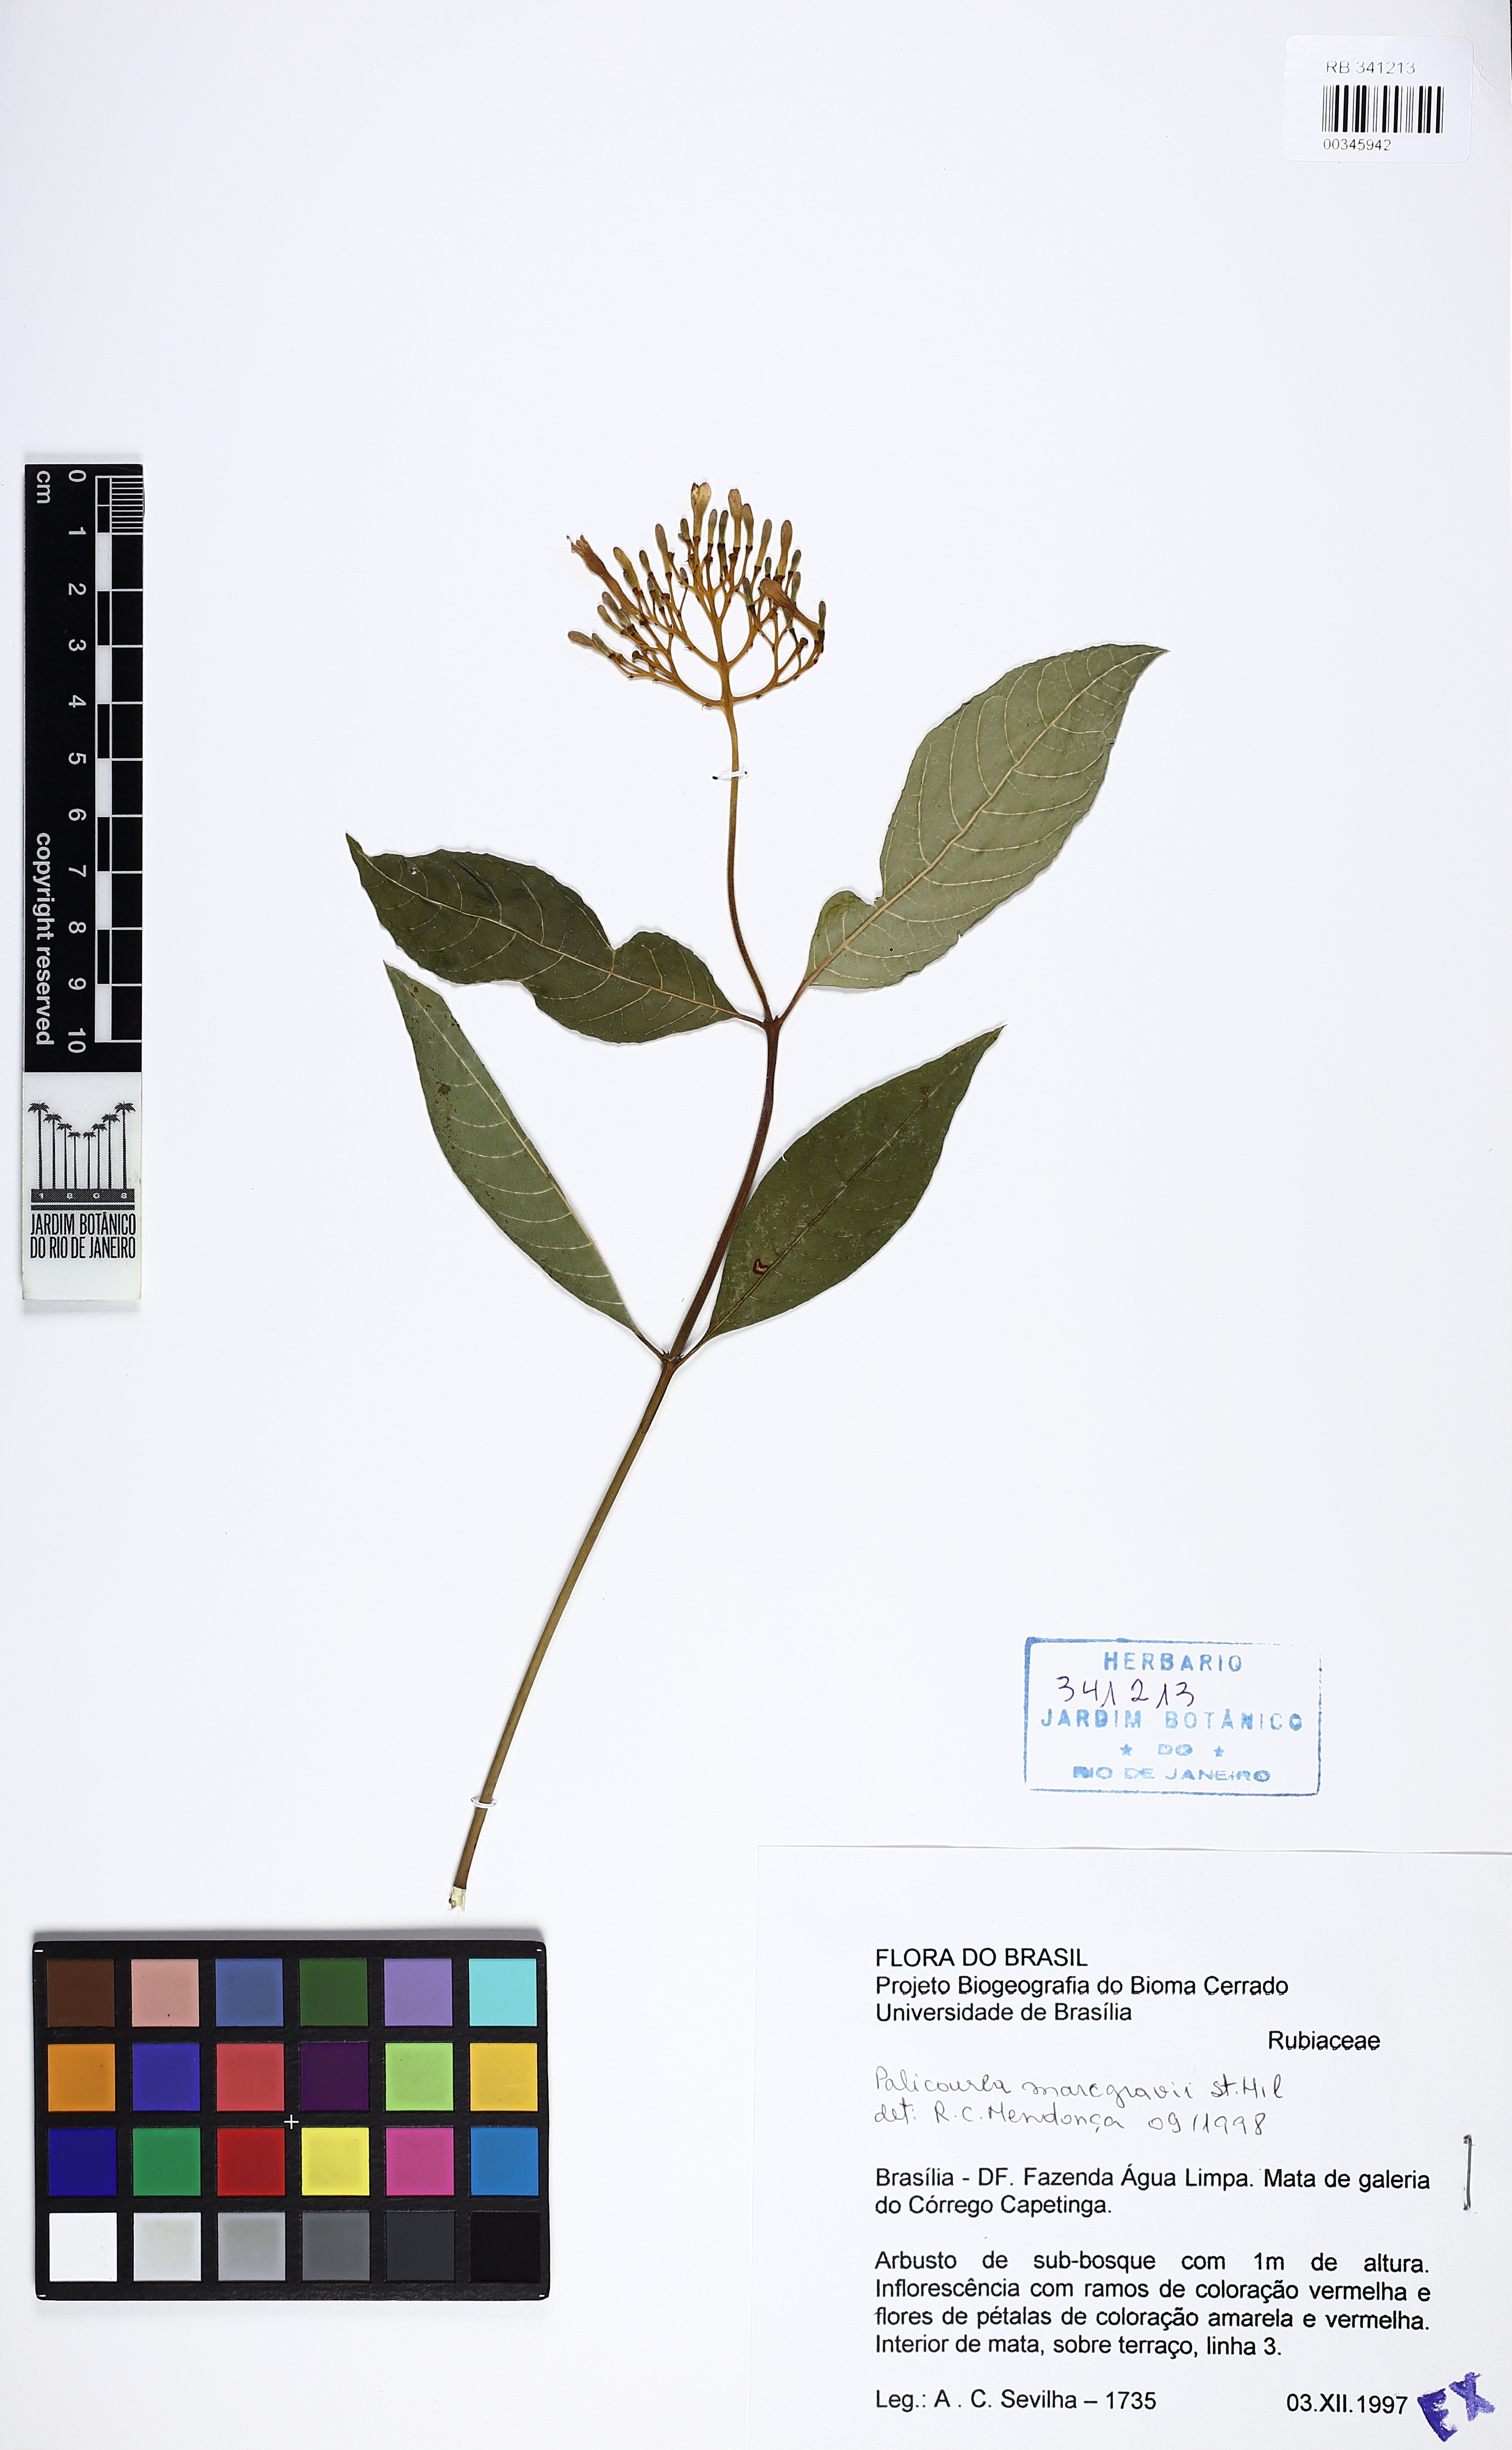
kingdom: Plantae
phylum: Tracheophyta
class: Magnoliopsida
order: Gentianales
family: Rubiaceae
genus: Palicourea
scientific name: Palicourea marcgravii
